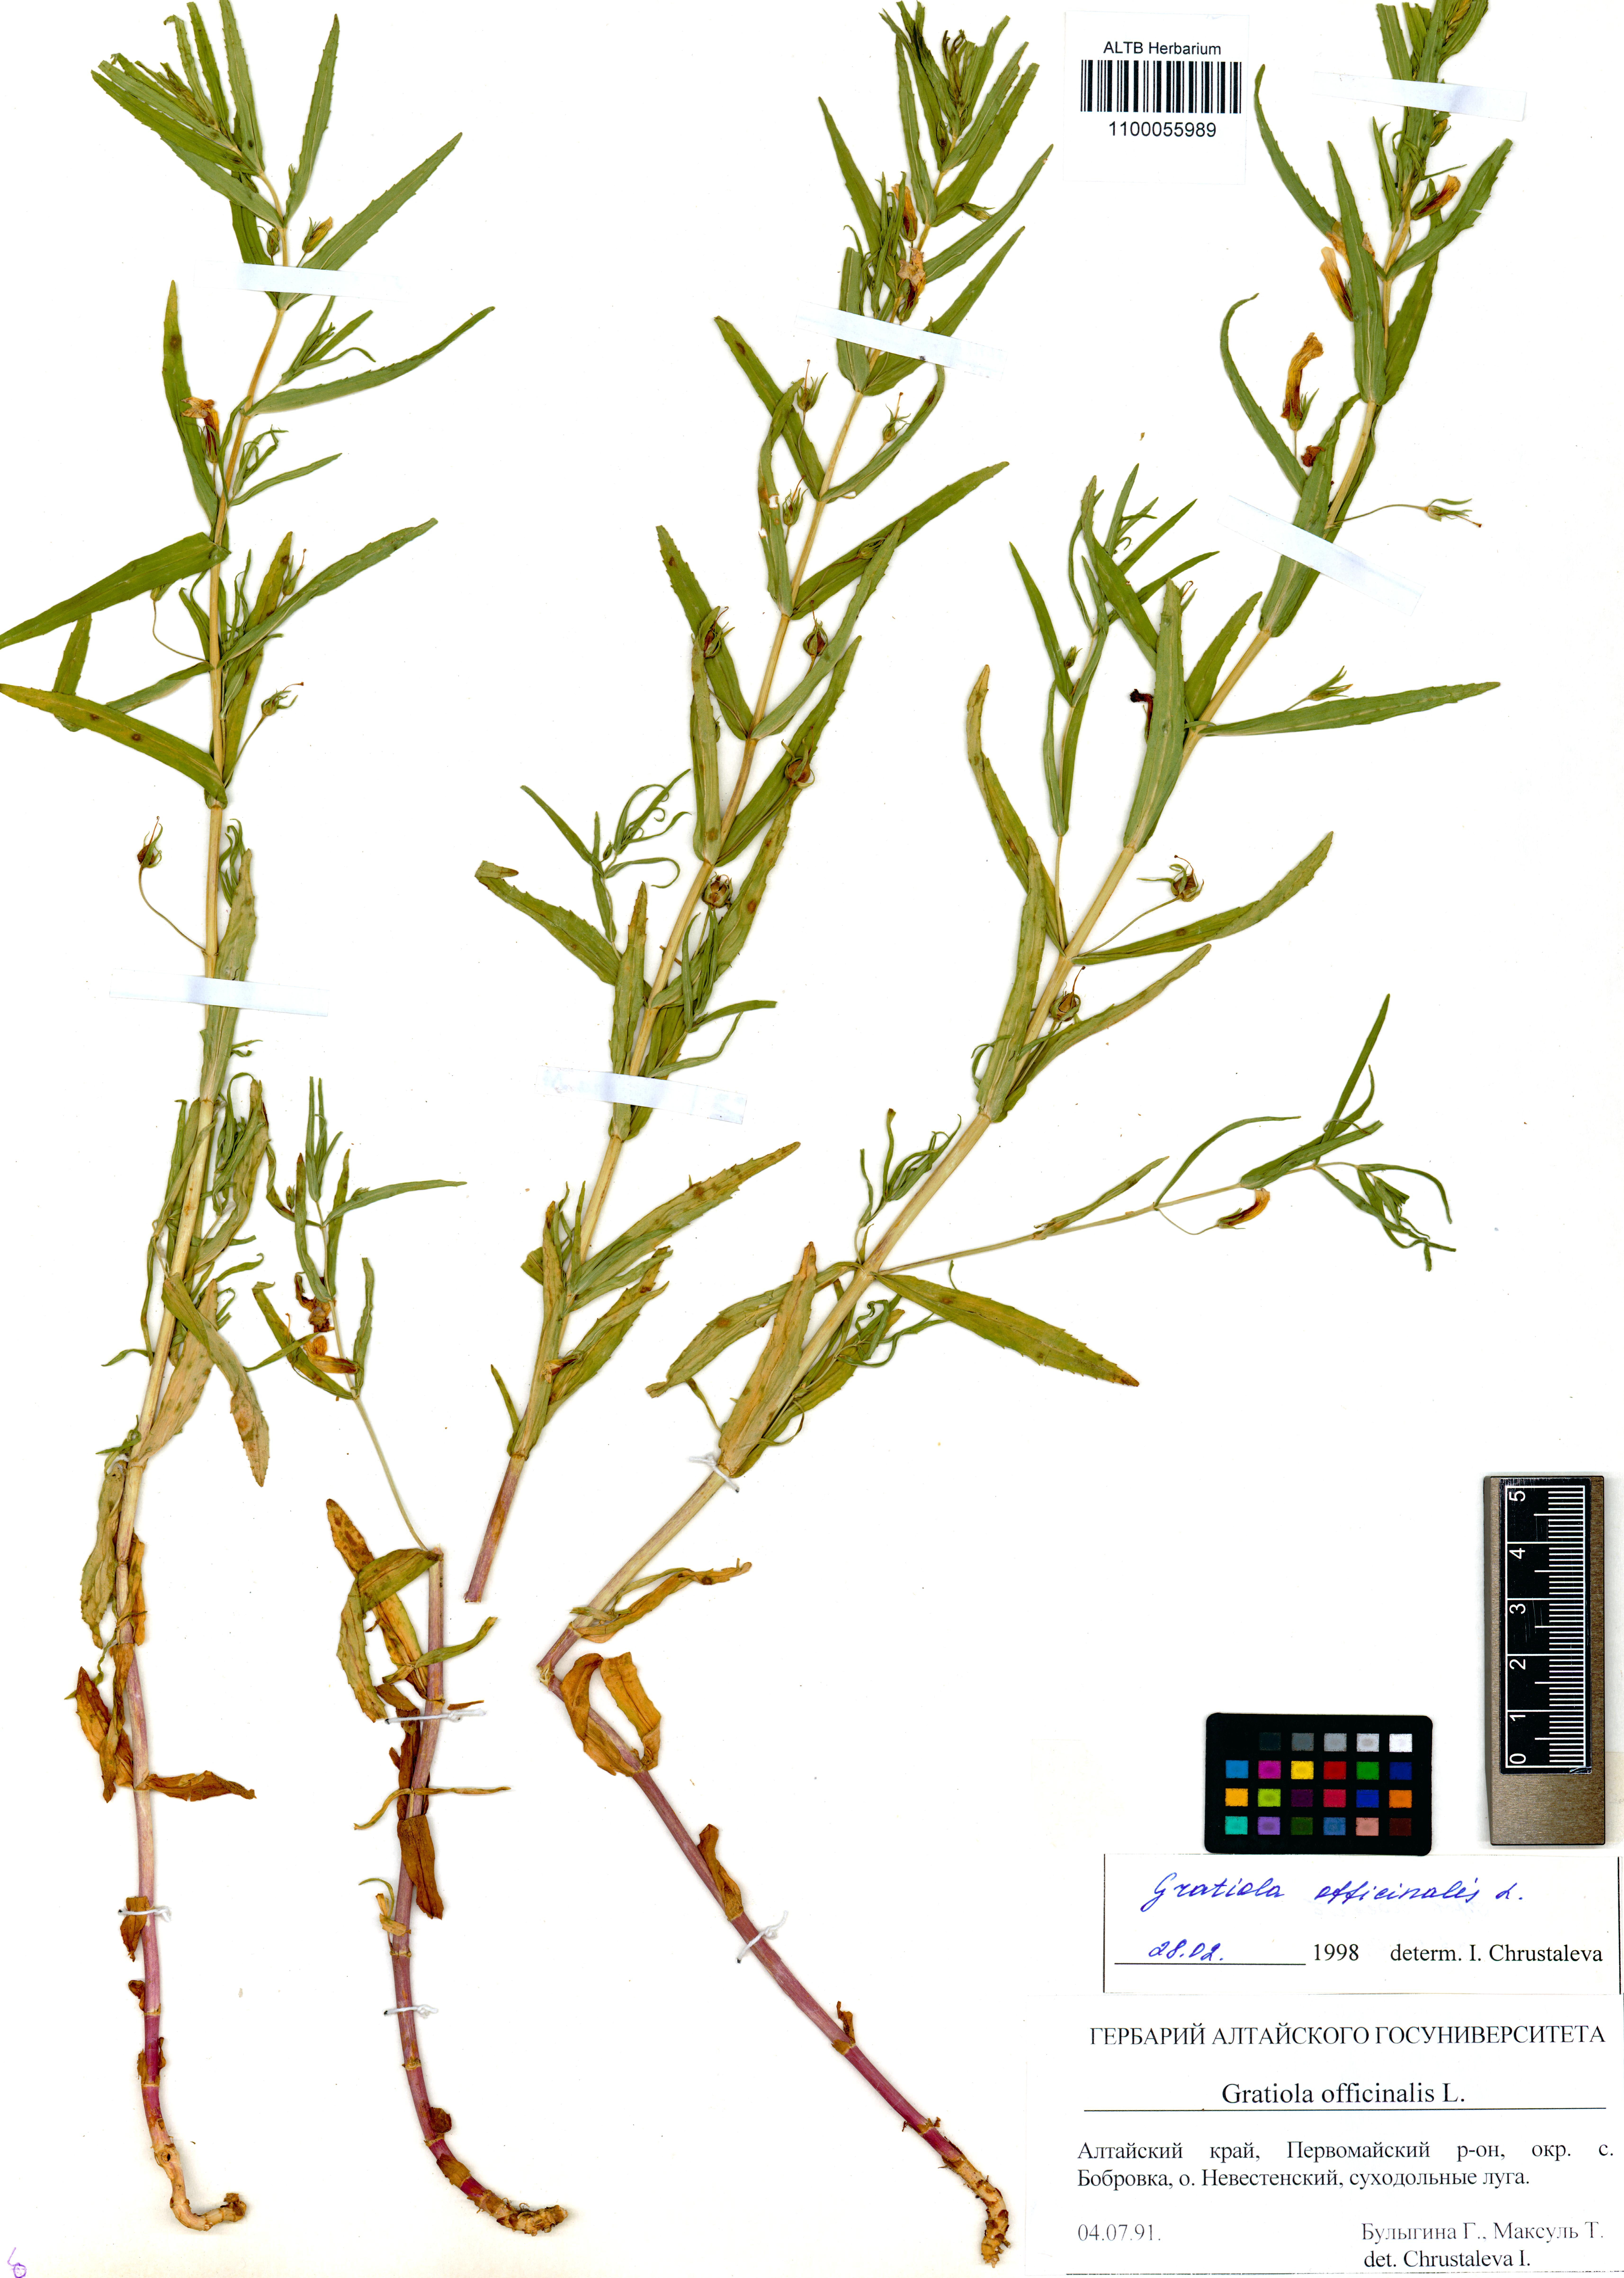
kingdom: Plantae
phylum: Tracheophyta
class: Magnoliopsida
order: Lamiales
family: Plantaginaceae
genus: Gratiola
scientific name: Gratiola officinalis
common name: Gratiola
